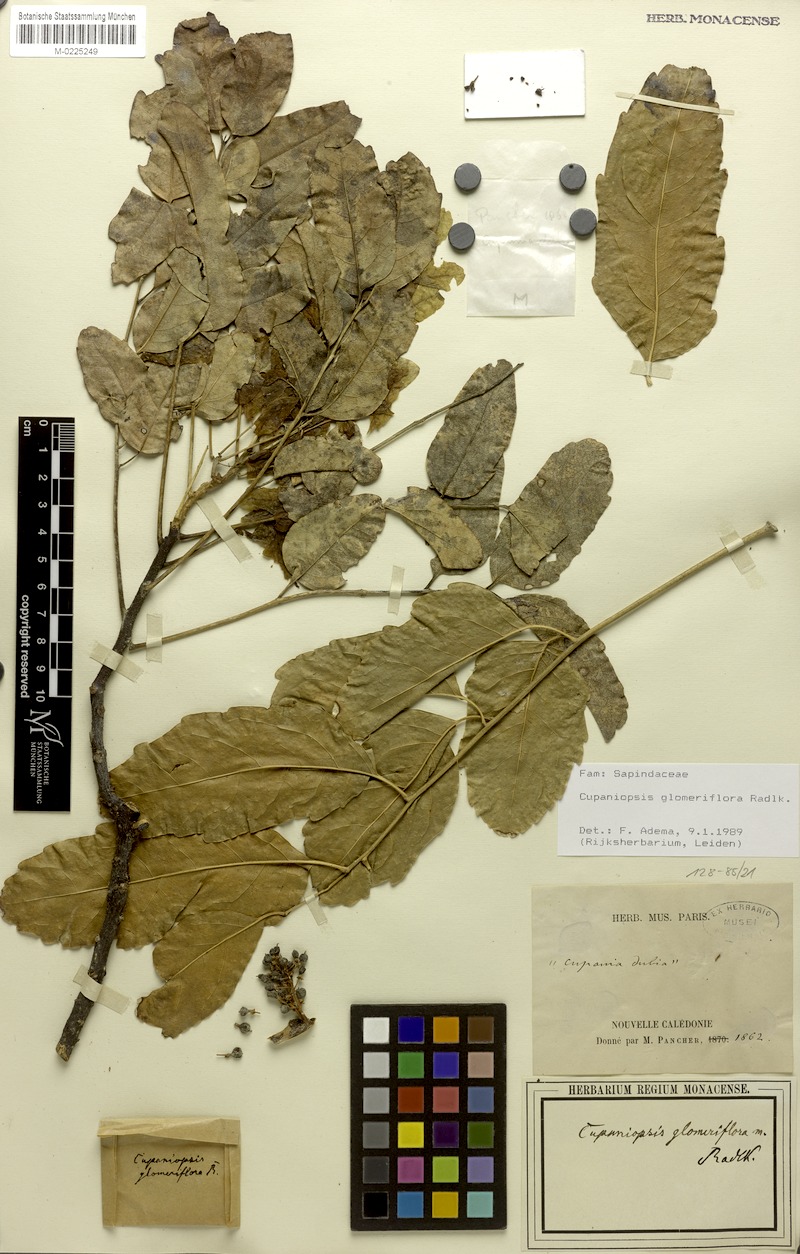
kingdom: Plantae
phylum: Tracheophyta
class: Magnoliopsida
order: Sapindales
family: Sapindaceae
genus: Lepidocupania
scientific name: Lepidocupania glomeriflora
